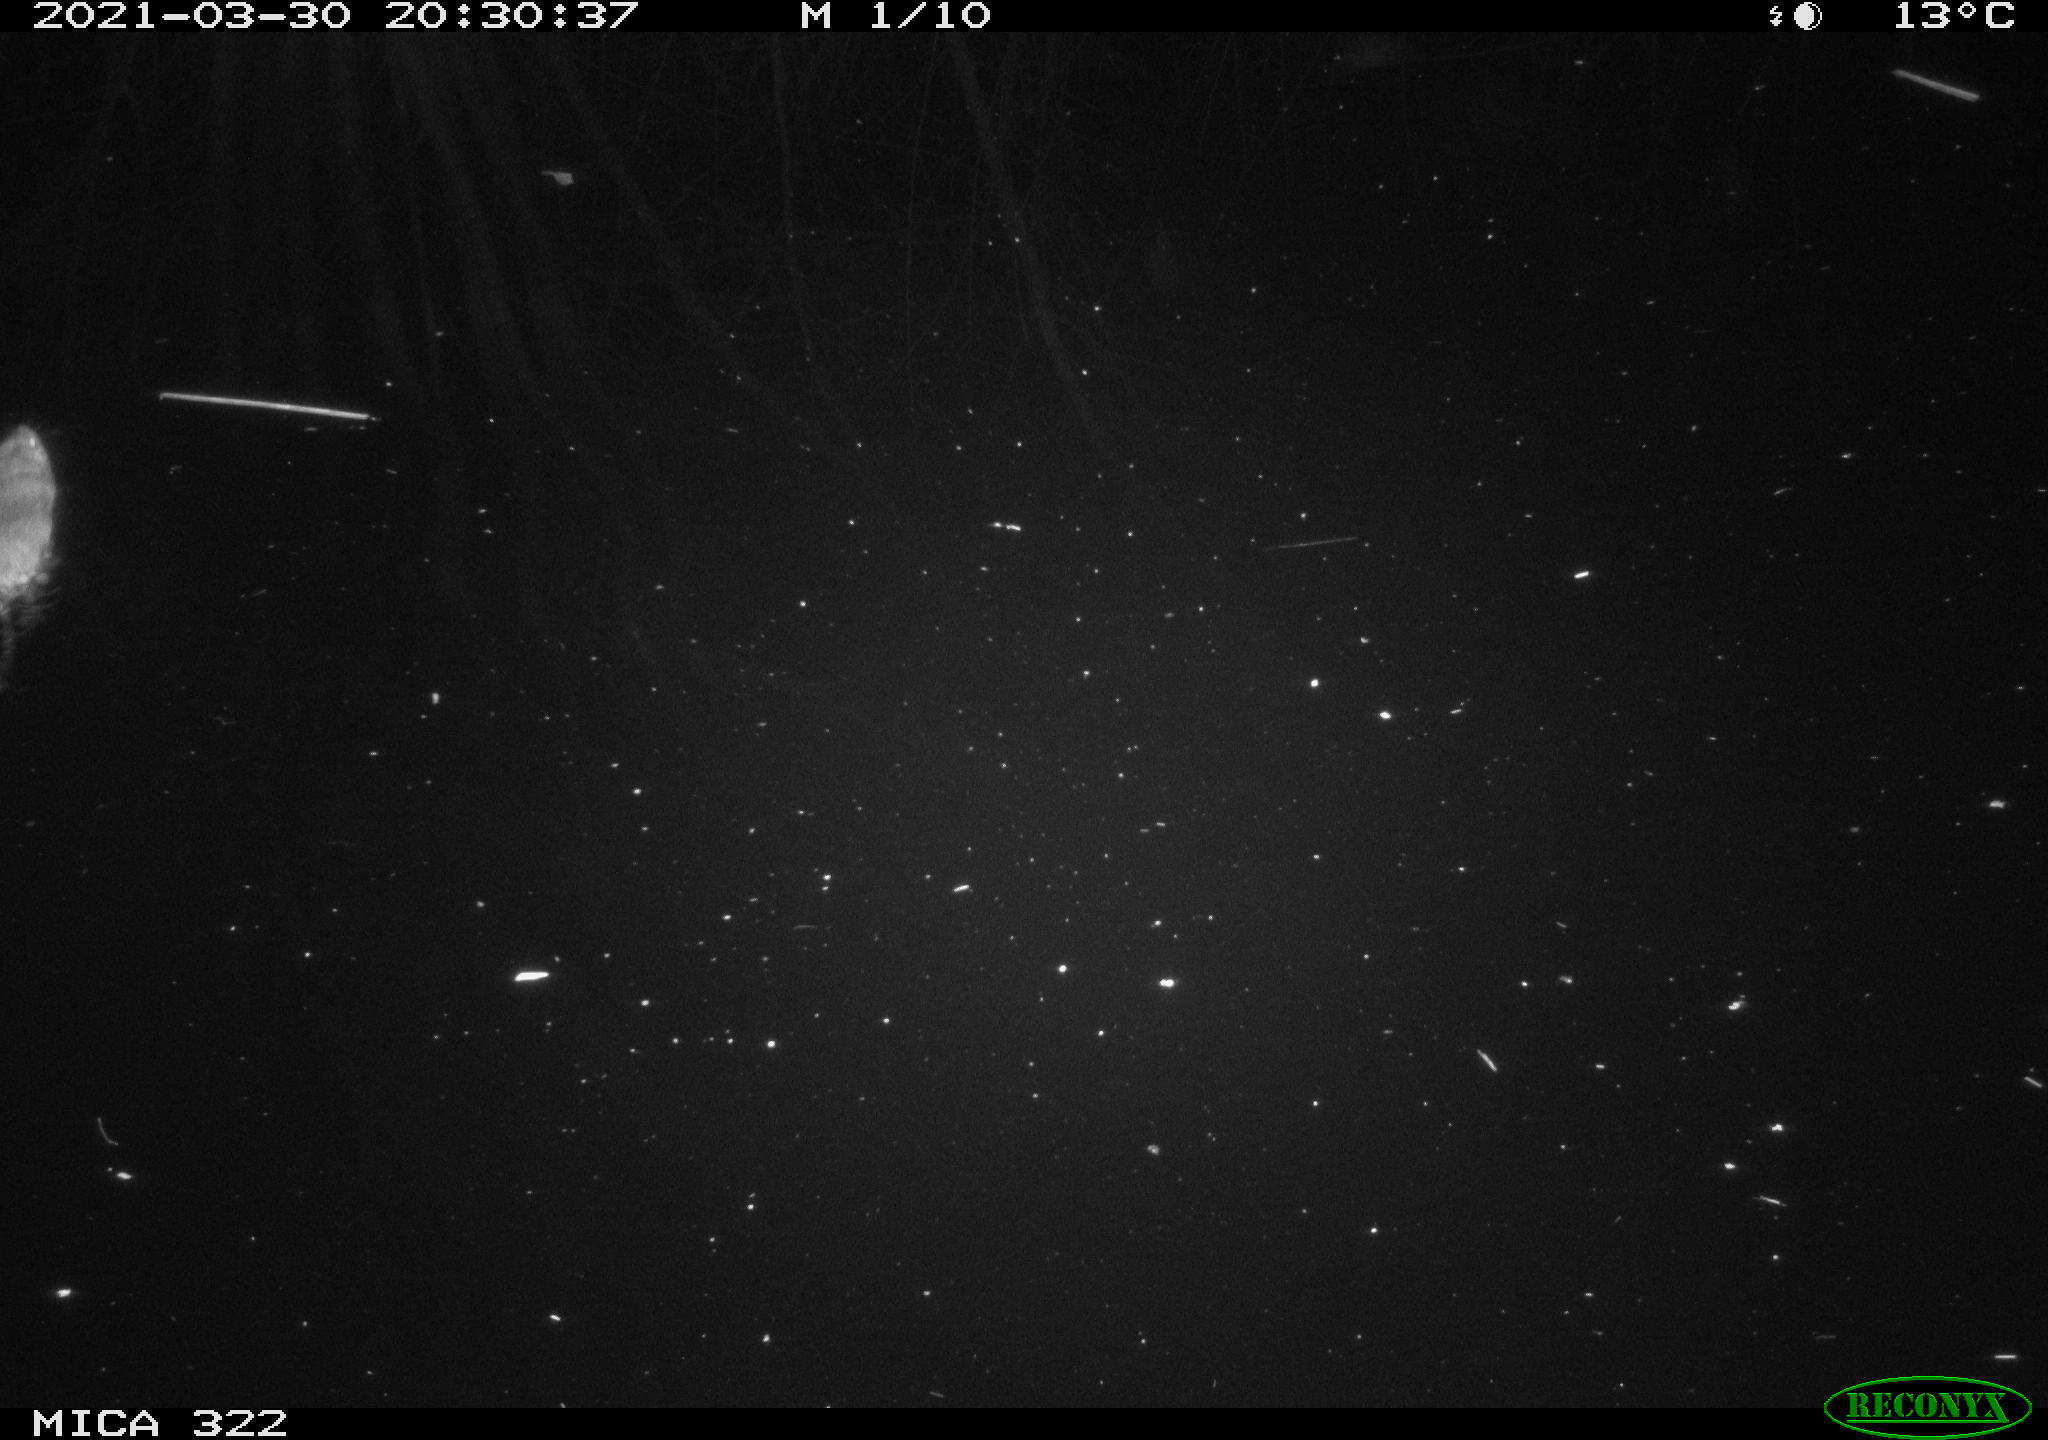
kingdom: Animalia
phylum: Chordata
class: Mammalia
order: Rodentia
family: Muridae
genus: Rattus
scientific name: Rattus norvegicus
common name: Brown rat
